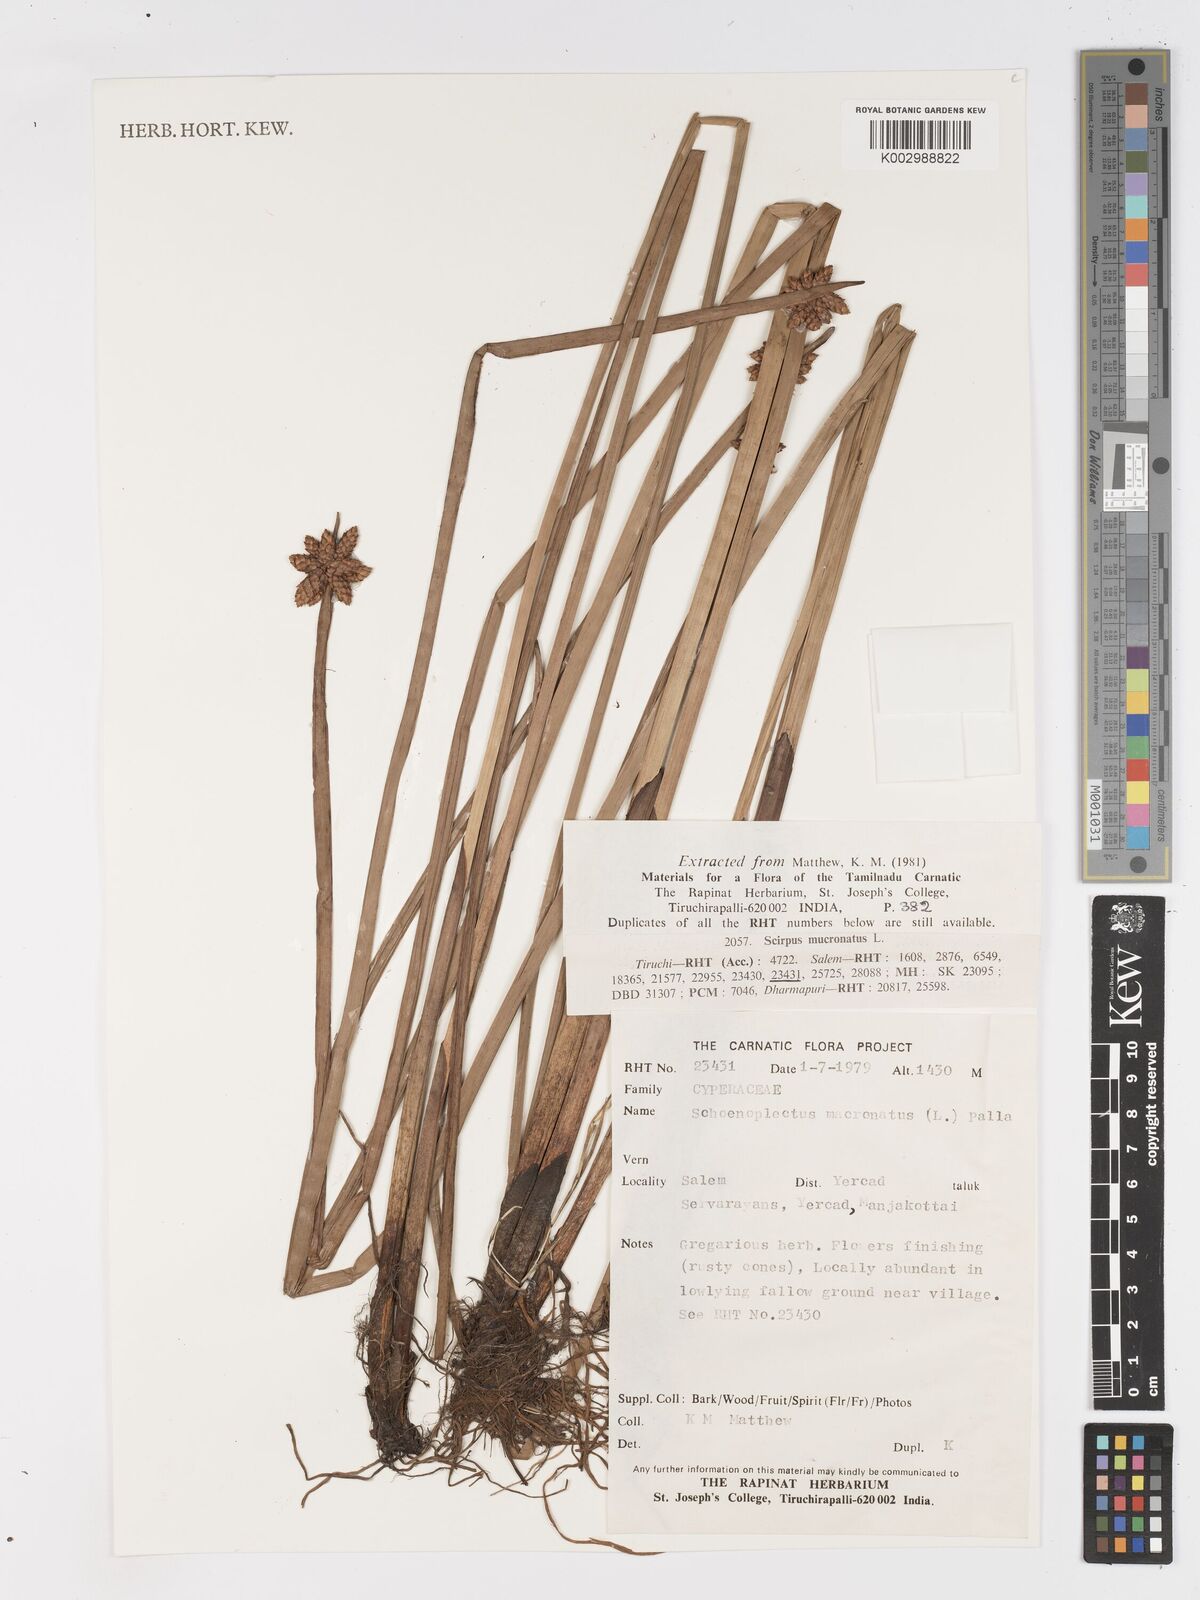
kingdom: Plantae
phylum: Tracheophyta
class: Liliopsida
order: Poales
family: Cyperaceae
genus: Schoenoplectiella
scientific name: Schoenoplectiella mucronata
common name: Bog bulrush
